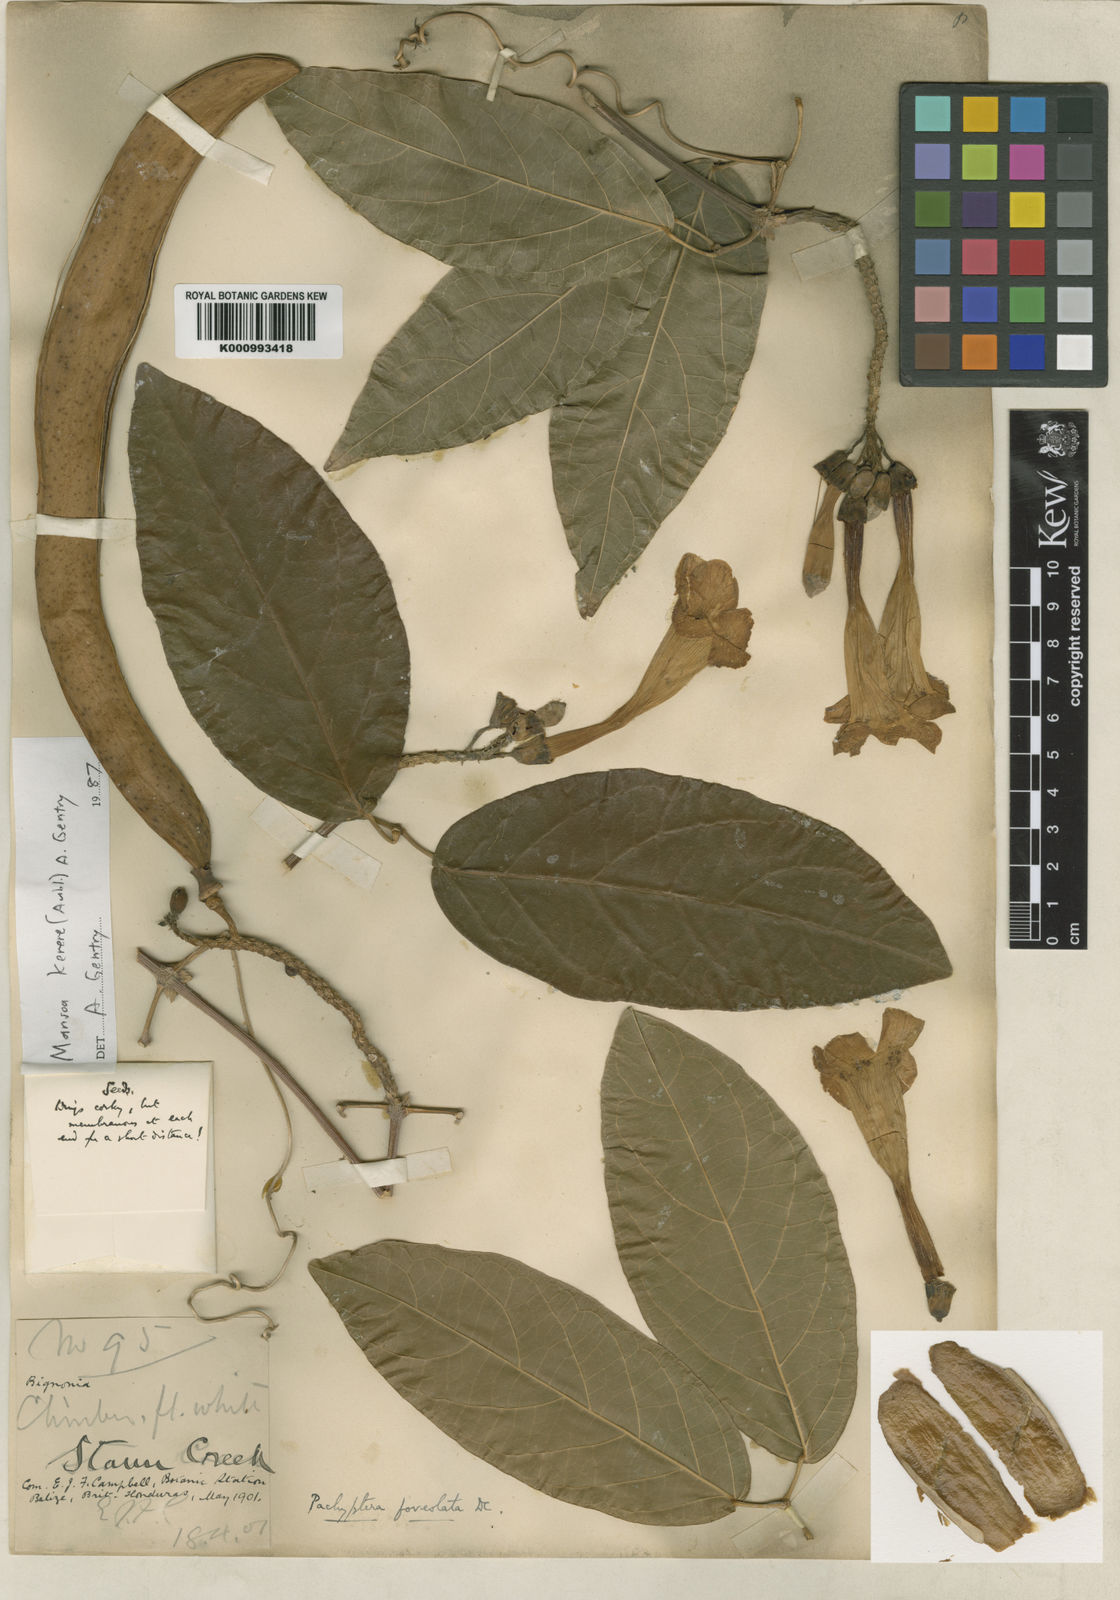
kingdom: Plantae
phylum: Tracheophyta
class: Magnoliopsida
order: Lamiales
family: Bignoniaceae
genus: Pachyptera
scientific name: Pachyptera kerere
